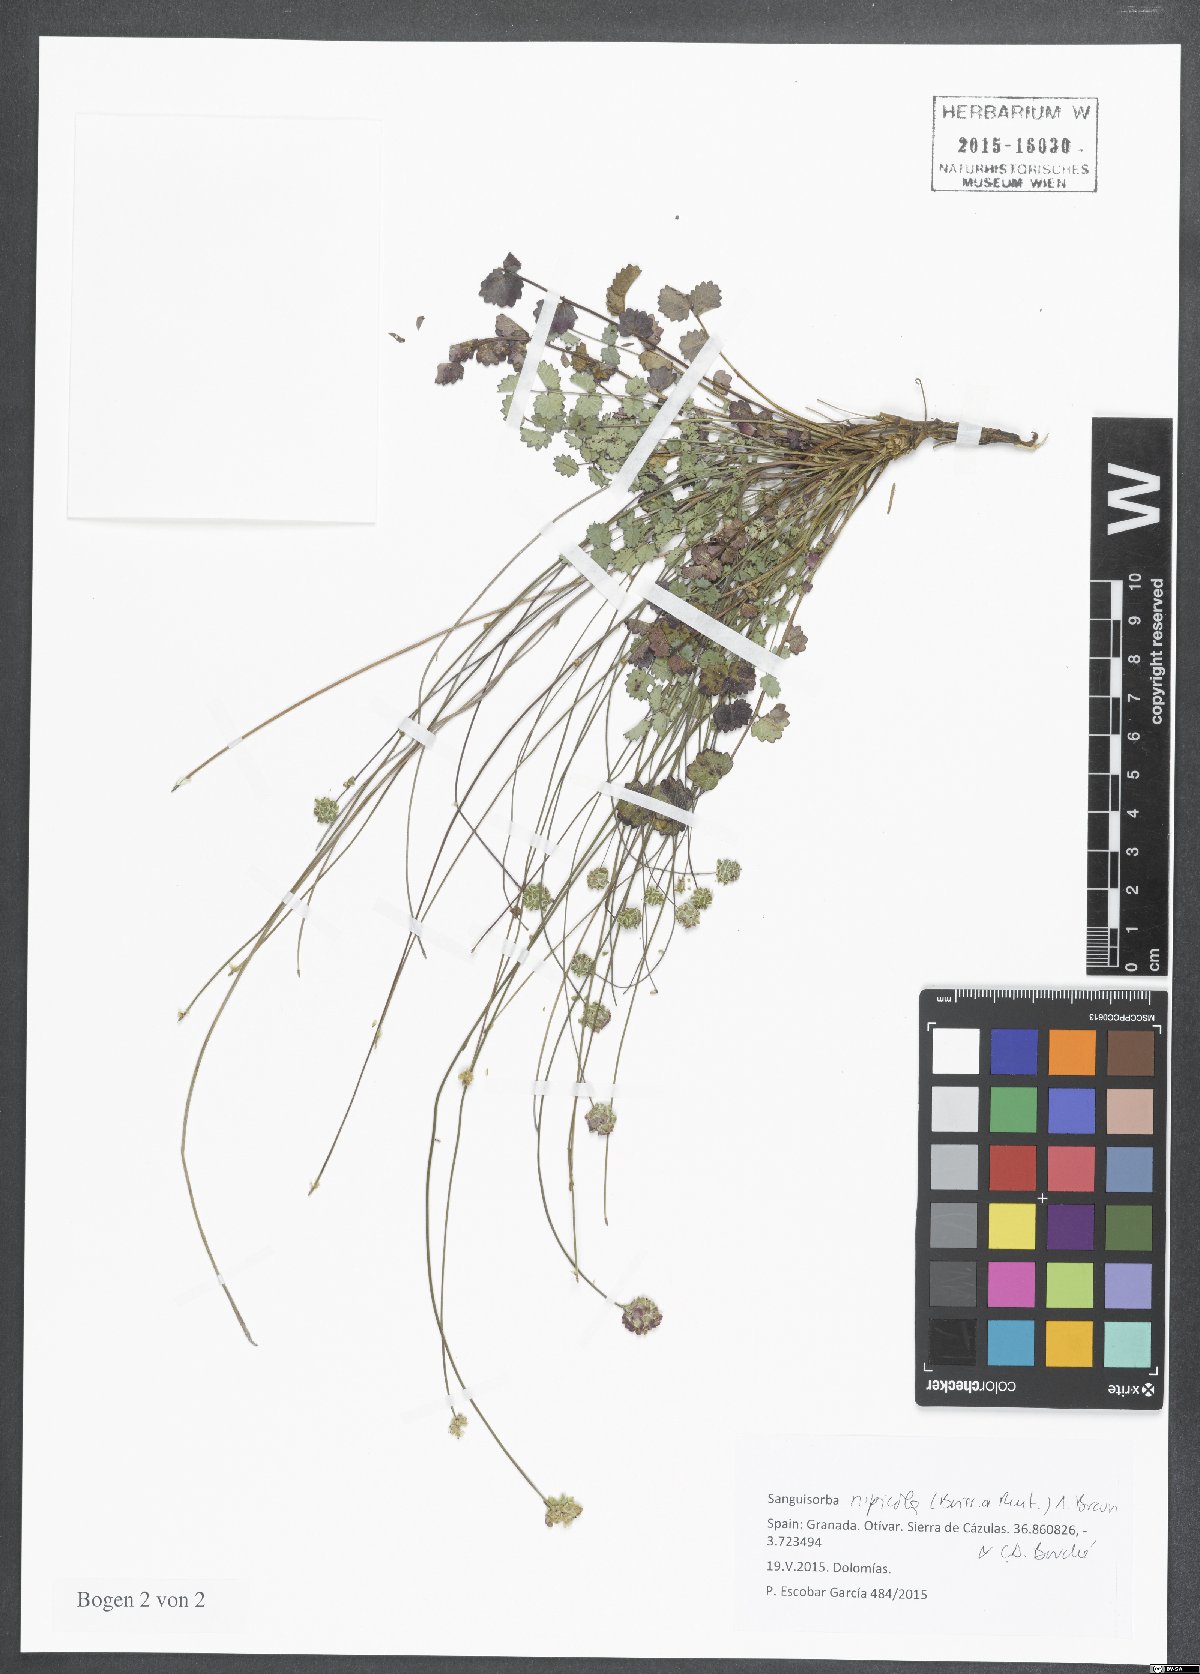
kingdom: Plantae
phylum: Tracheophyta
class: Magnoliopsida
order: Rosales
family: Rosaceae
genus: Poterium
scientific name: Poterium rupicolum
